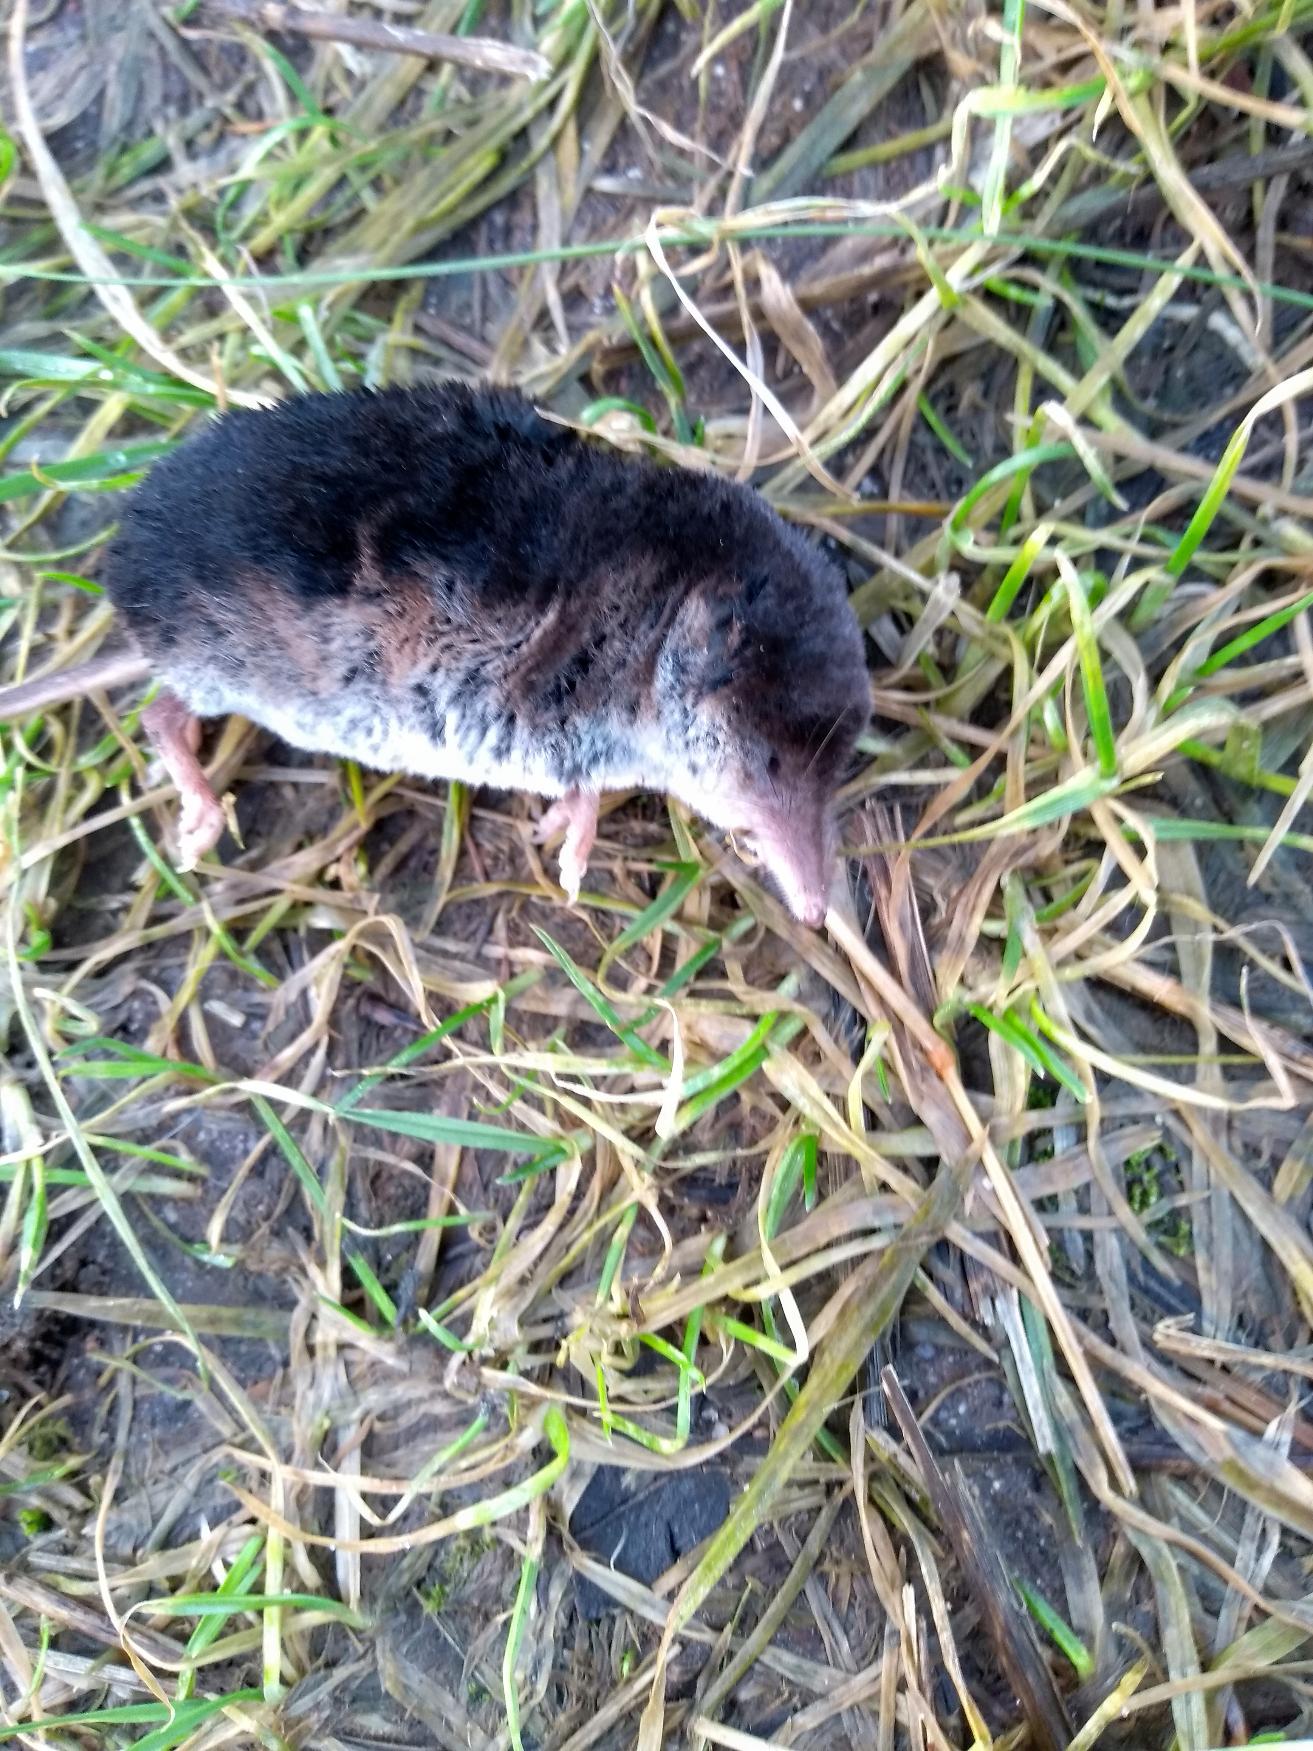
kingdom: Animalia
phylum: Chordata
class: Mammalia
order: Soricomorpha
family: Soricidae
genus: Sorex
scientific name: Sorex araneus
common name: Almindelig spidsmus
